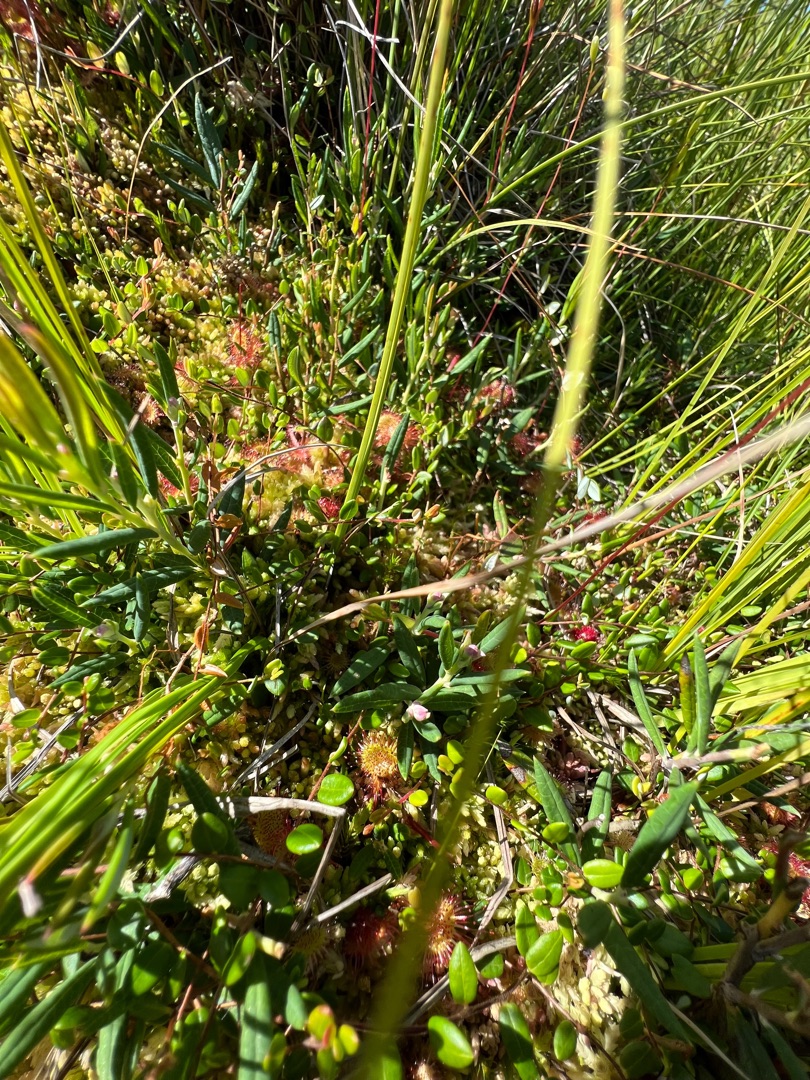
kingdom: Plantae
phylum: Tracheophyta
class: Magnoliopsida
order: Ericales
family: Ericaceae
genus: Andromeda
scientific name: Andromeda polifolia
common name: Rosmarinlyng
